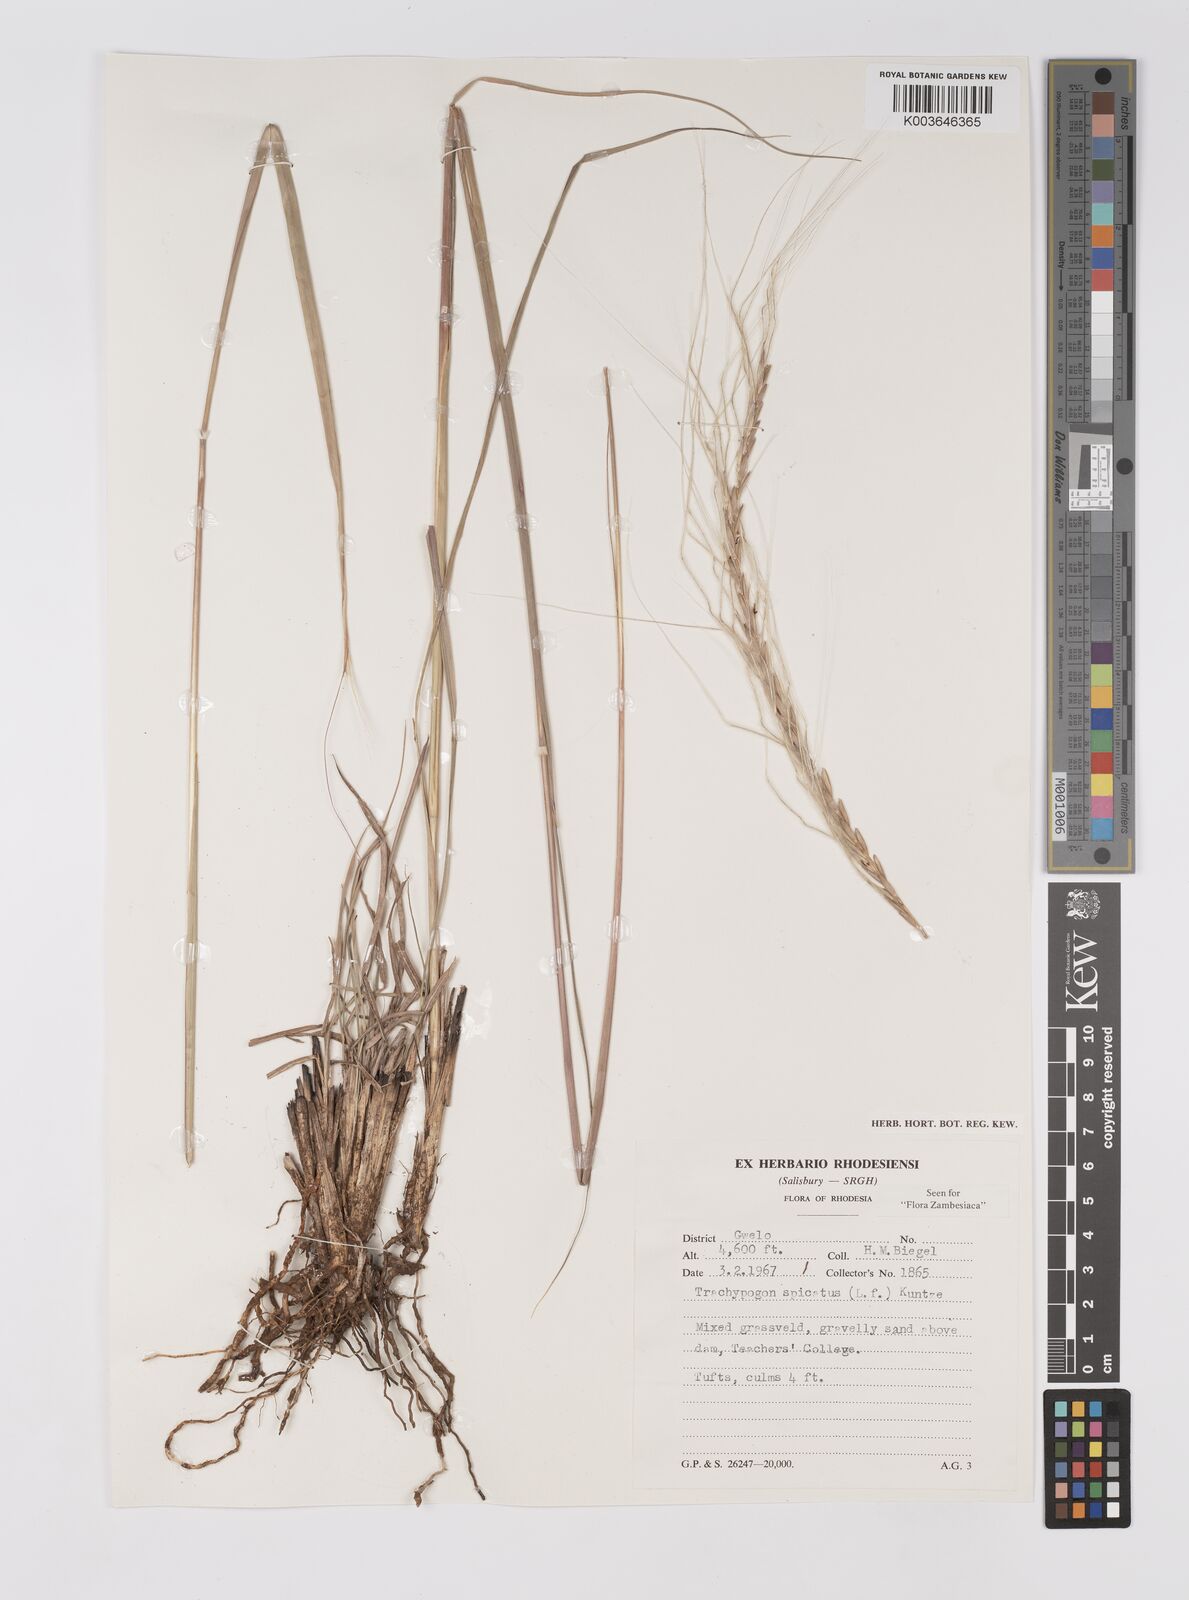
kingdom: Plantae
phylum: Tracheophyta
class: Liliopsida
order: Poales
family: Poaceae
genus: Trachypogon
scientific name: Trachypogon spicatus
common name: Crinkle-awn
